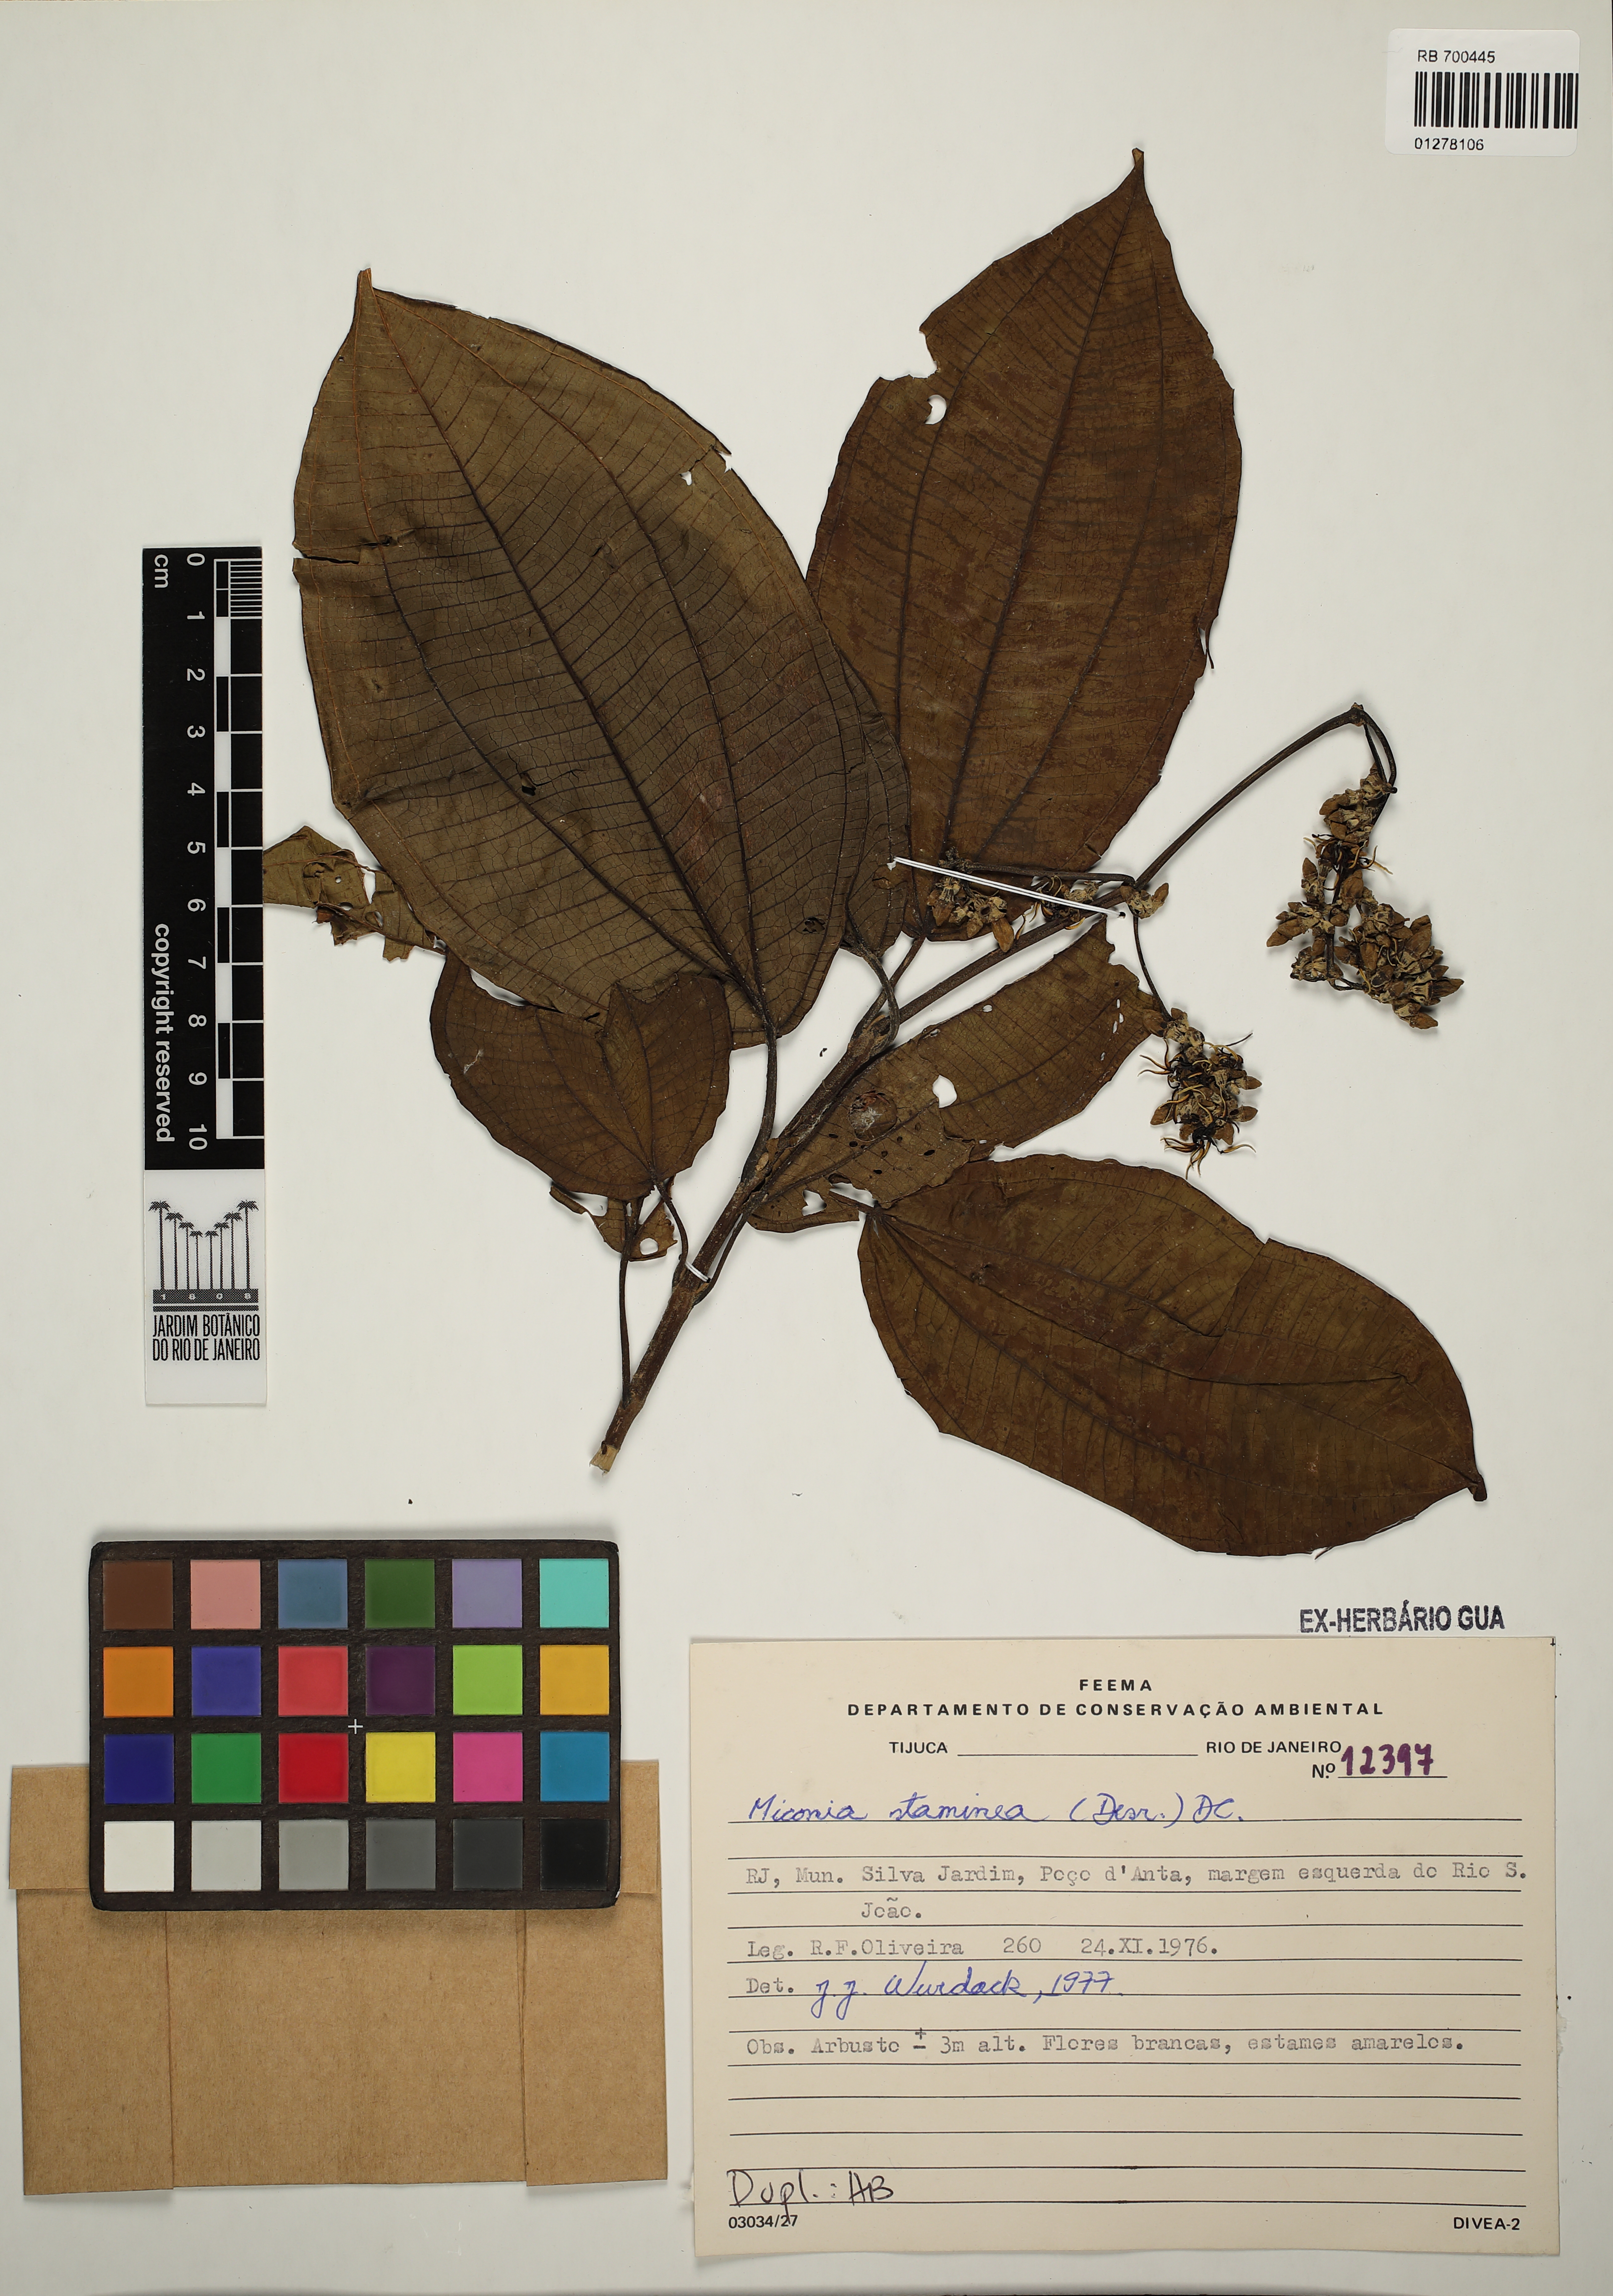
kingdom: Plantae
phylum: Tracheophyta
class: Magnoliopsida
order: Myrtales
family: Melastomataceae
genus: Miconia
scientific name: Miconia staminea
